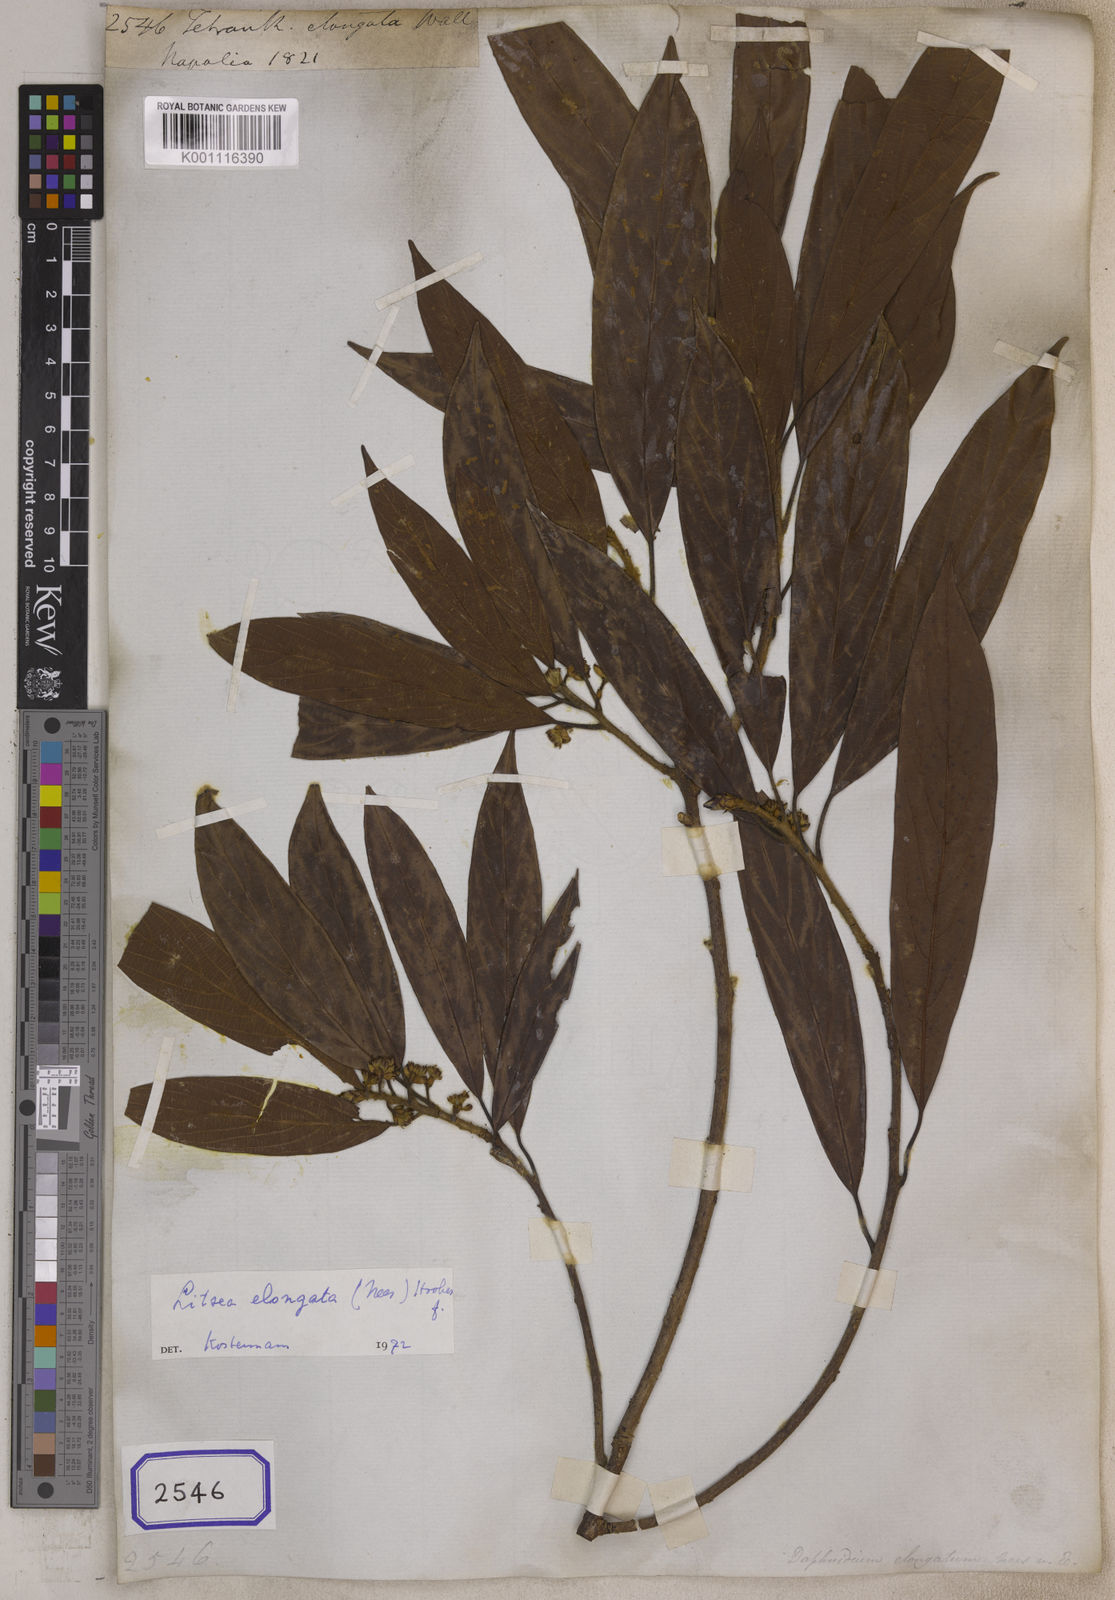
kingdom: Plantae
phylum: Tracheophyta
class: Magnoliopsida
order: Laurales
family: Lauraceae
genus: Litsea
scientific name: Litsea
